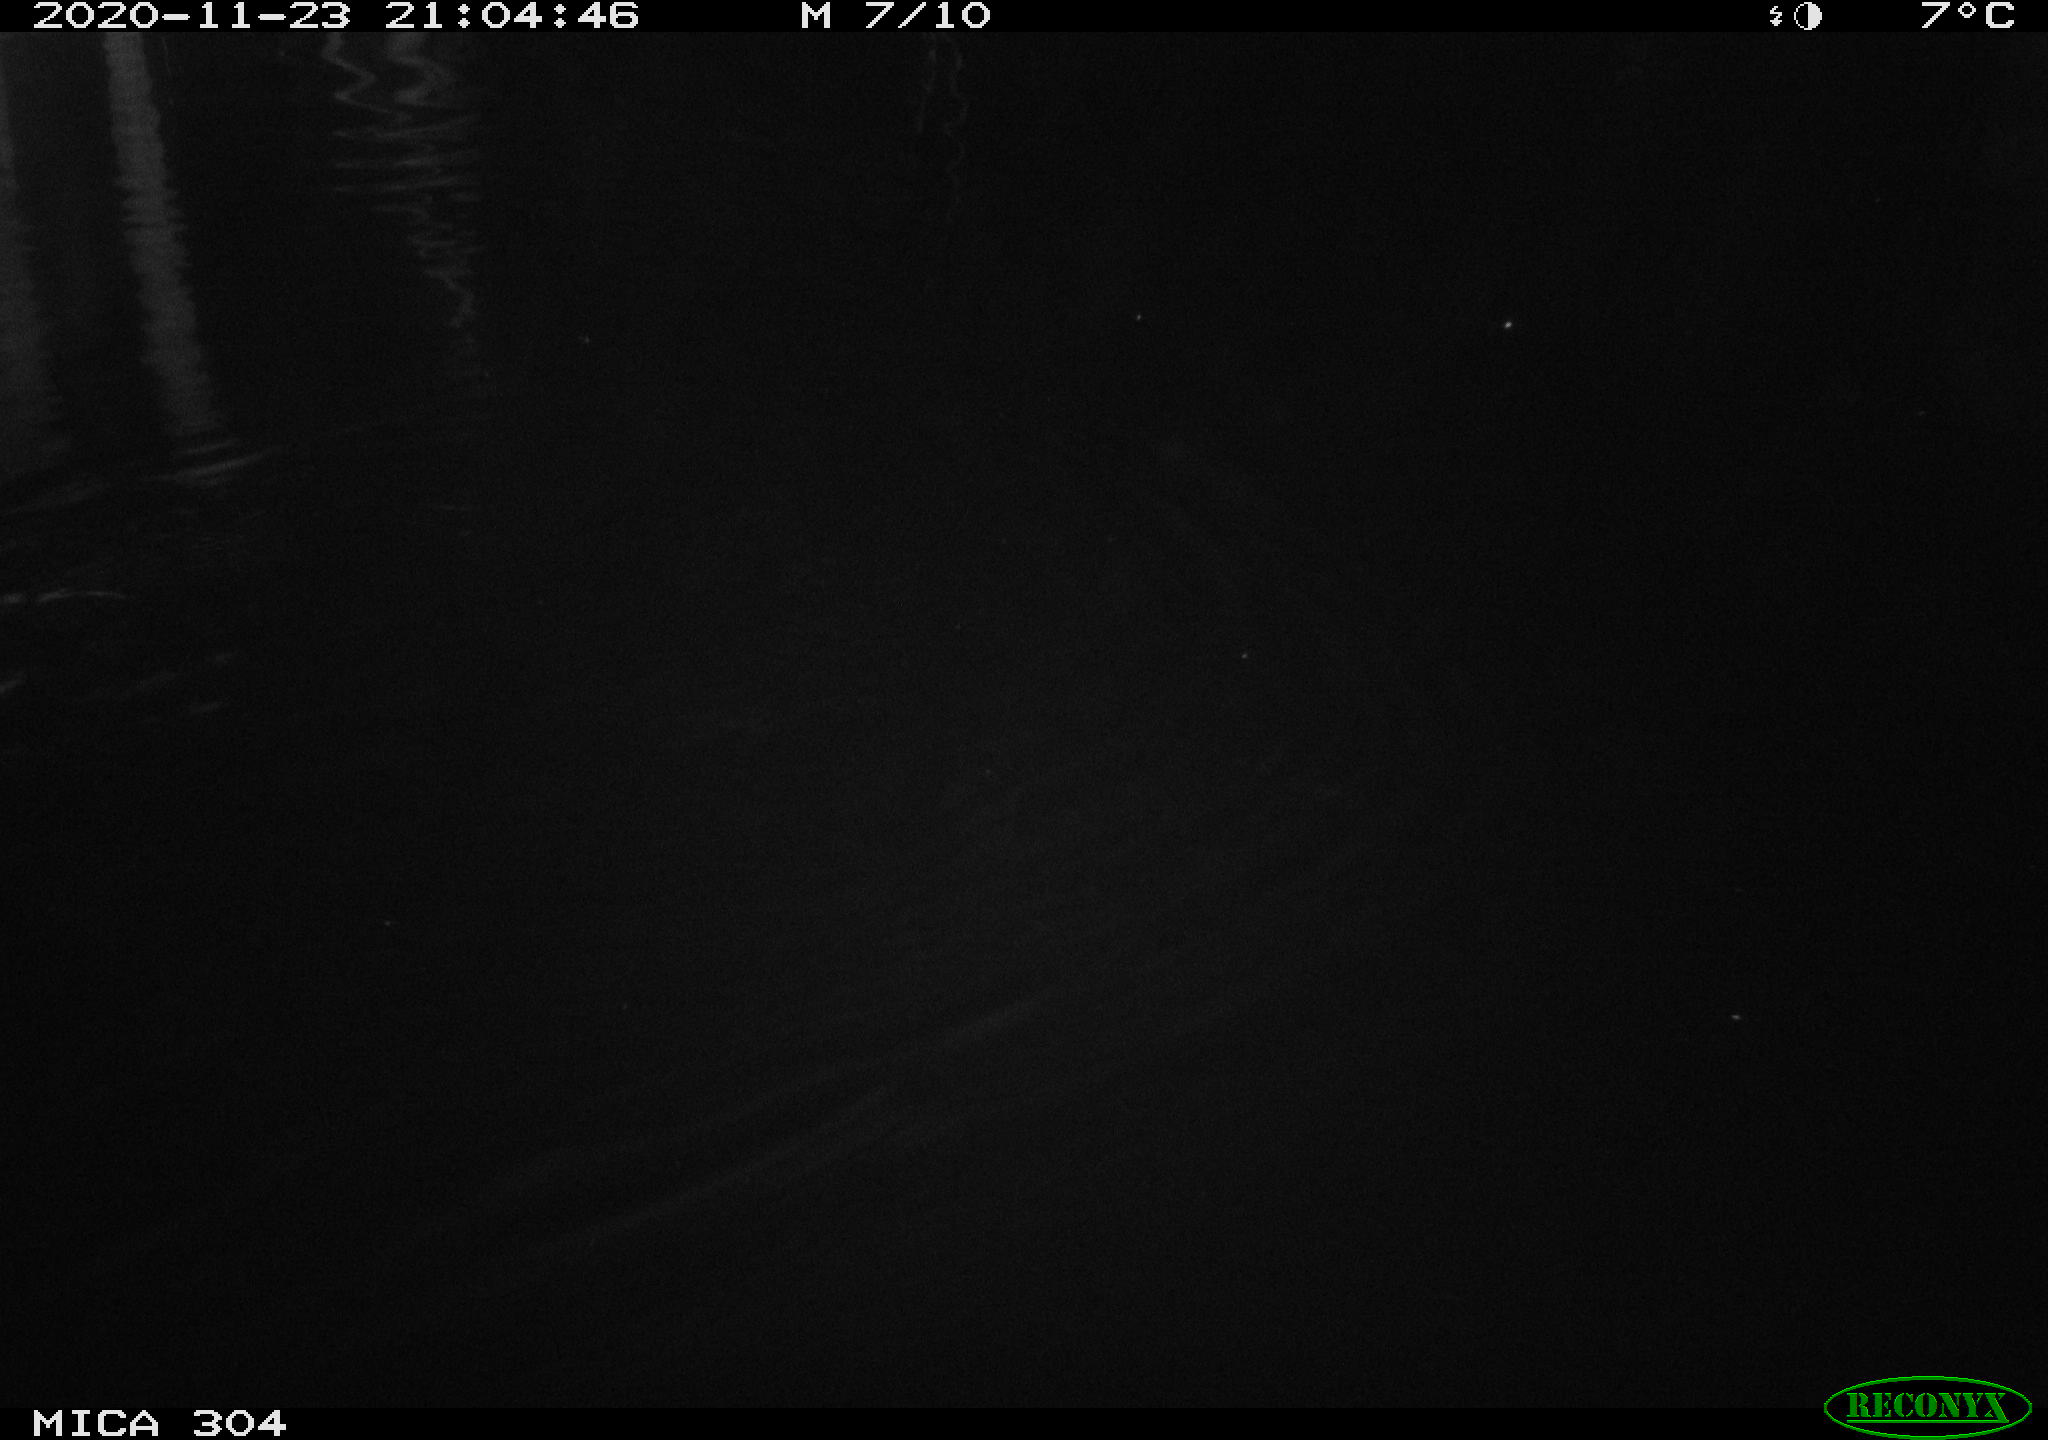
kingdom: Animalia
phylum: Chordata
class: Mammalia
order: Rodentia
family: Muridae
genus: Rattus
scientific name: Rattus norvegicus
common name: Brown rat
